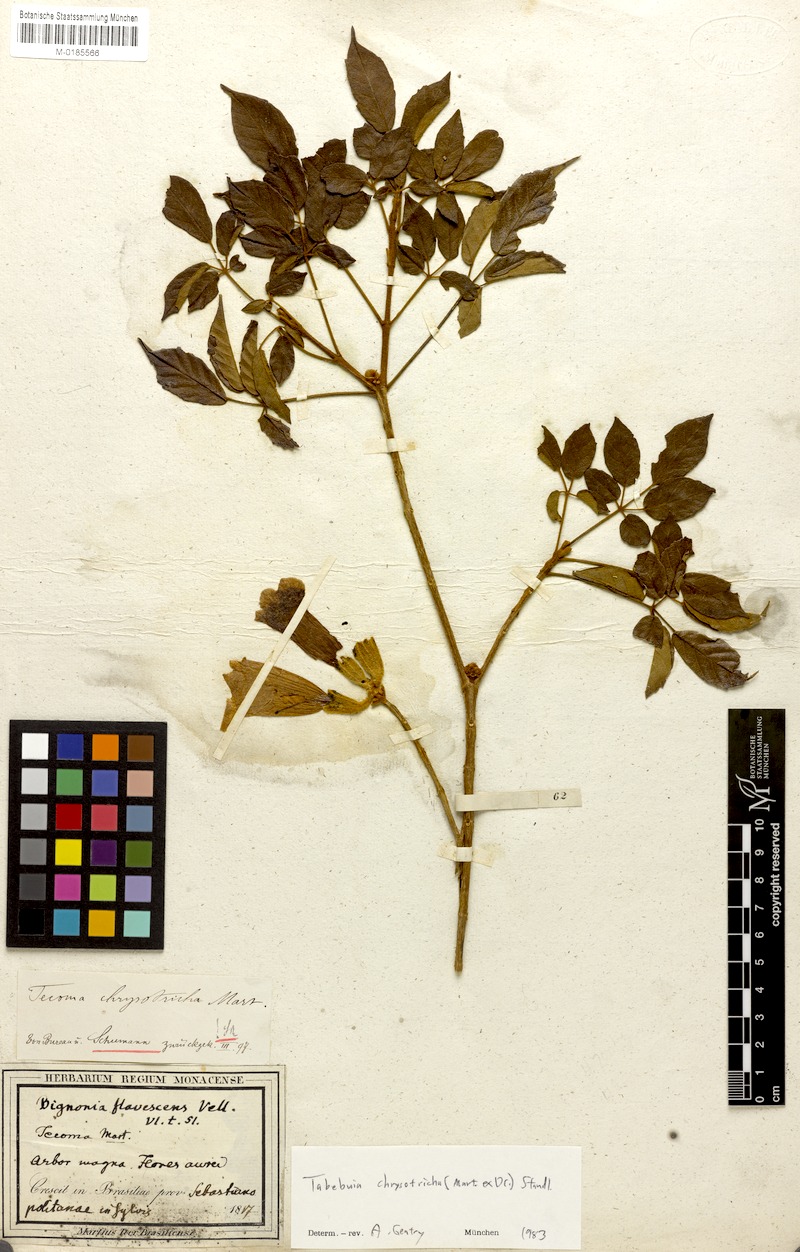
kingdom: Plantae
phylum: Tracheophyta
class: Magnoliopsida
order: Lamiales
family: Bignoniaceae
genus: Handroanthus
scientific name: Handroanthus chrysotrichus
